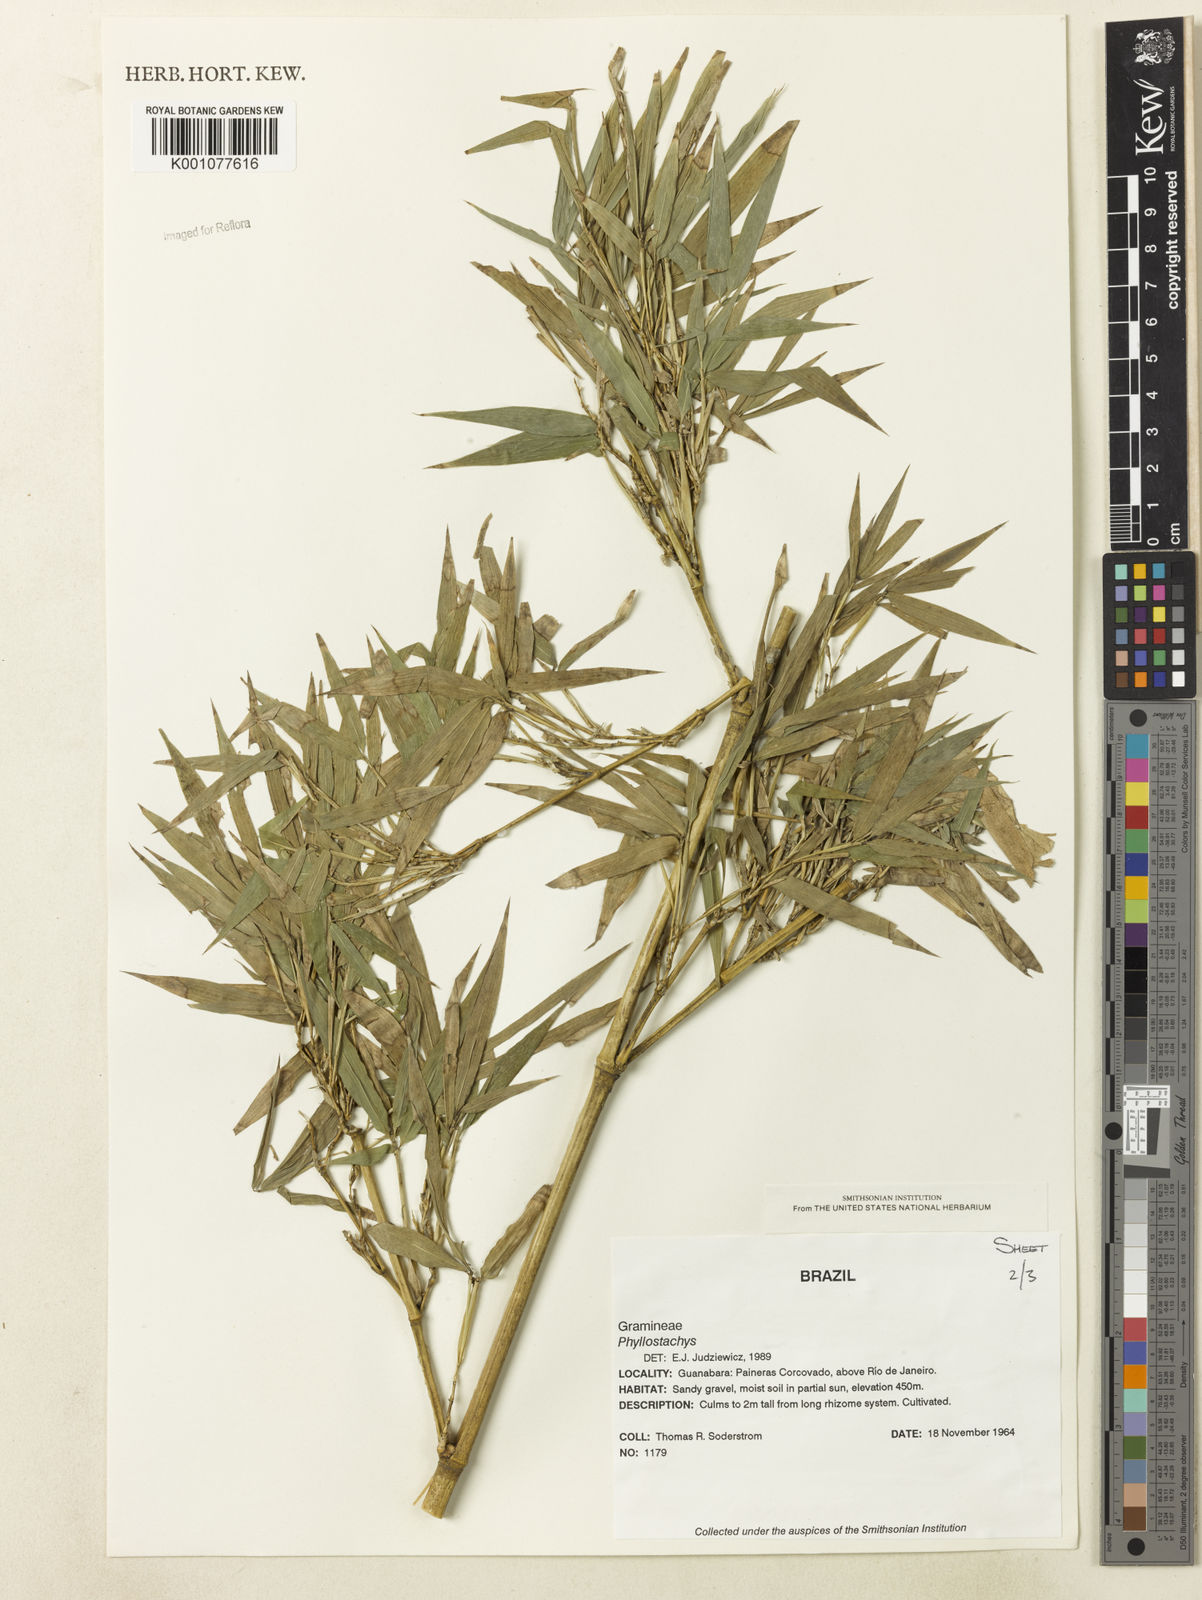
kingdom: Plantae
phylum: Tracheophyta
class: Liliopsida
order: Poales
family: Poaceae
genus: Phyllostachys
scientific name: Phyllostachys
